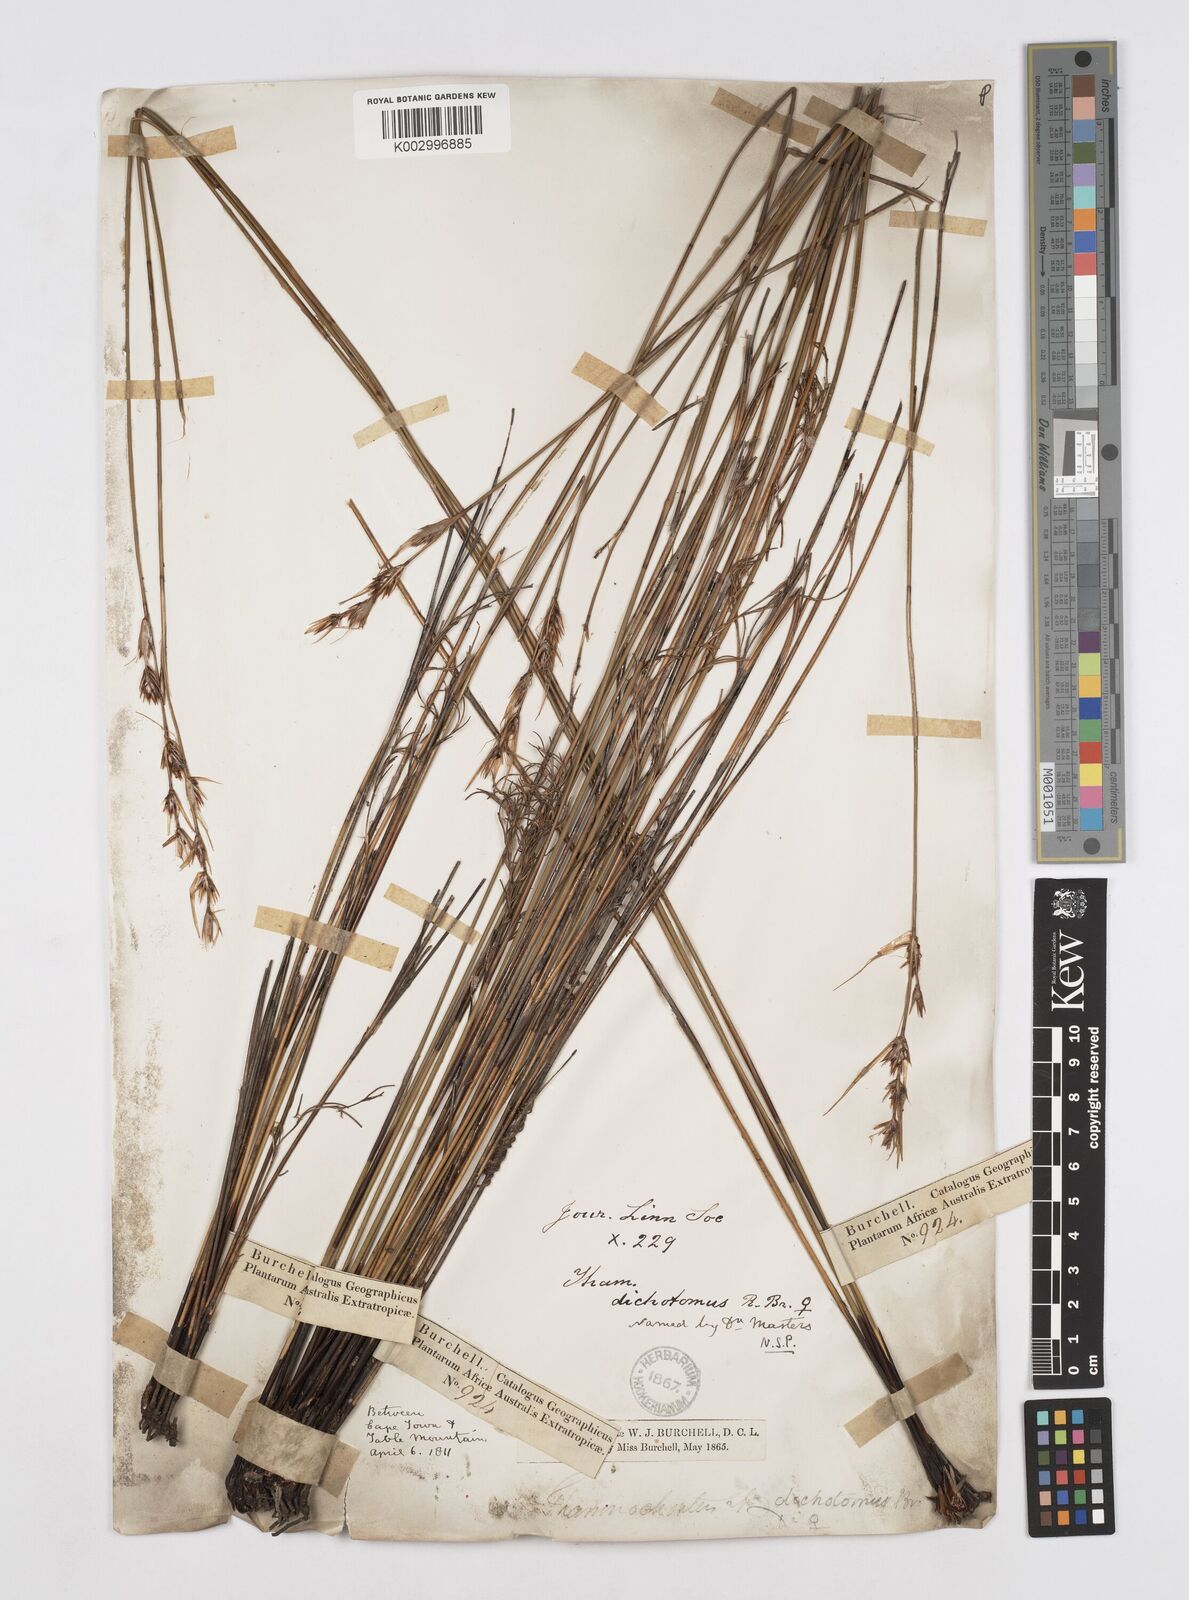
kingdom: Plantae
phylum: Tracheophyta
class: Liliopsida
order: Poales
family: Restionaceae
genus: Thamnochortus
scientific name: Thamnochortus lucens
